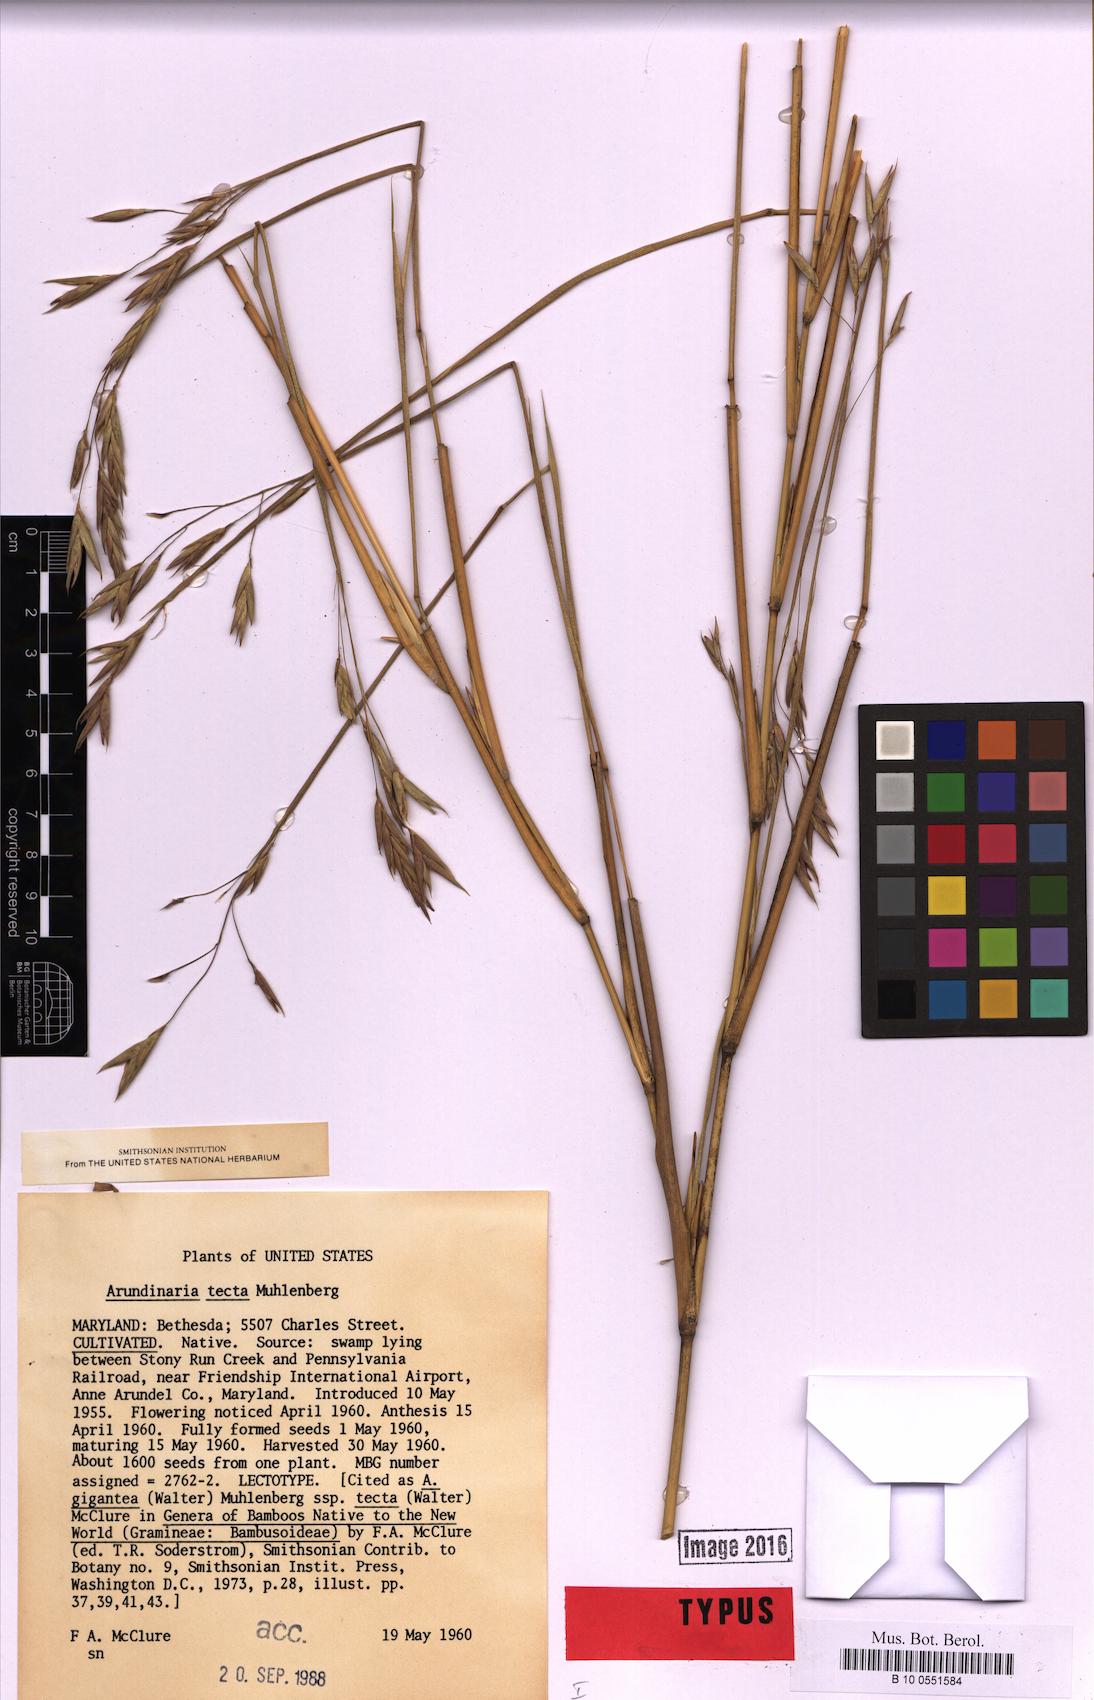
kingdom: Plantae
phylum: Tracheophyta
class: Liliopsida
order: Poales
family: Poaceae
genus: Arundinaria
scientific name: Arundinaria tecta
